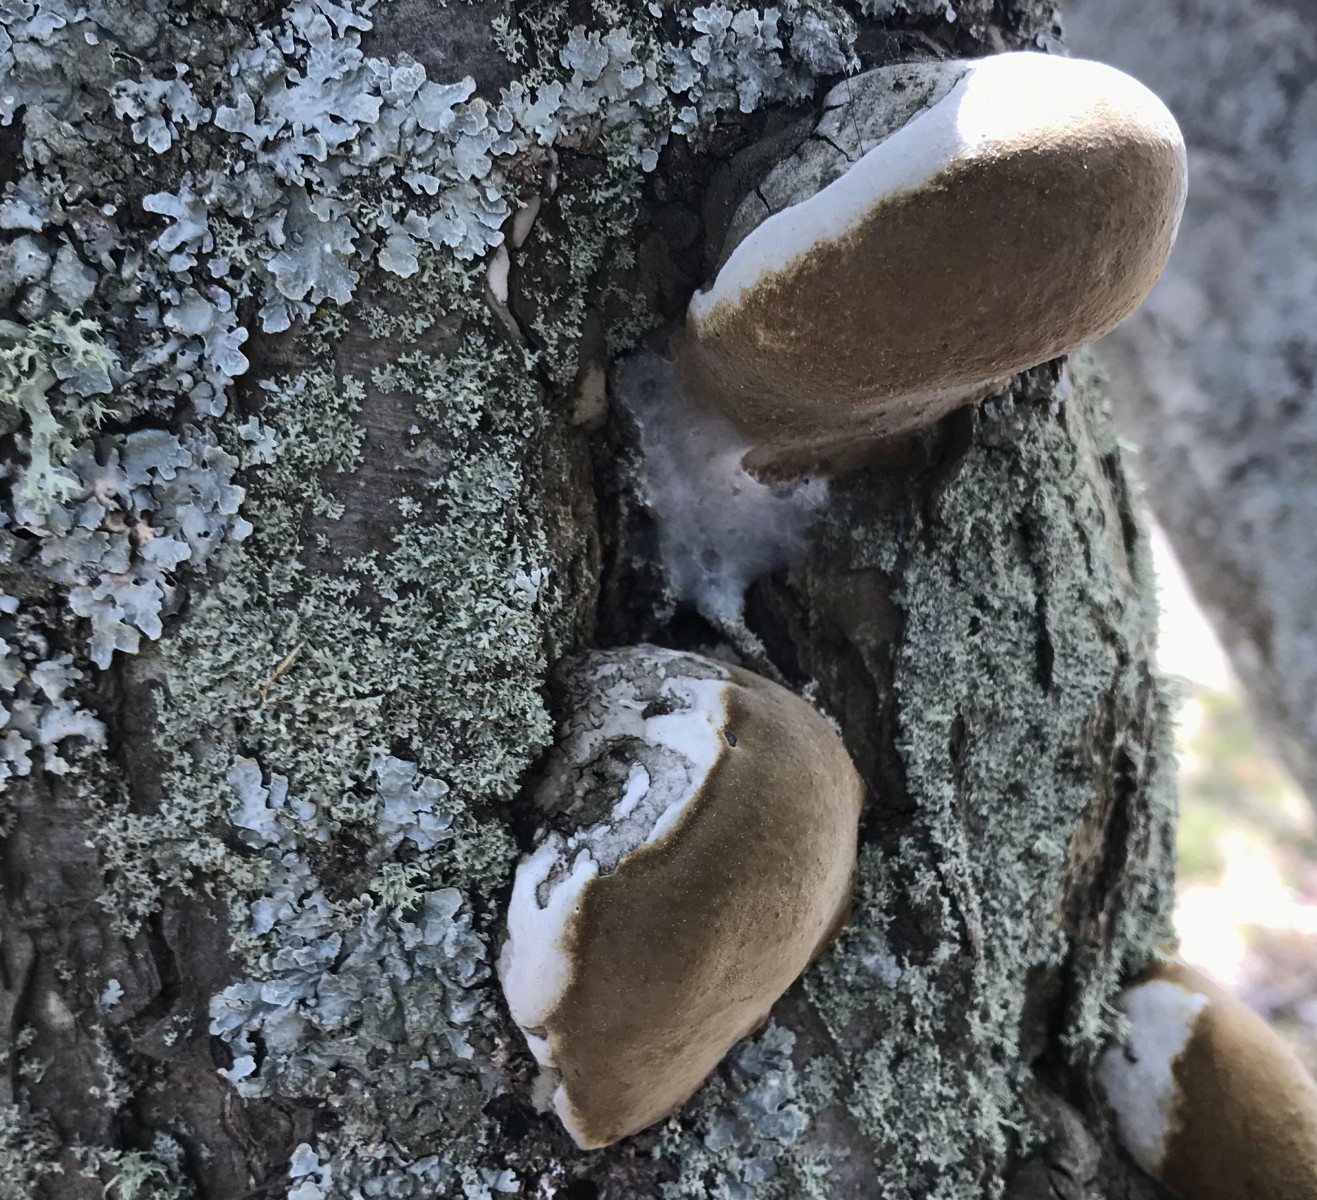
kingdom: Fungi
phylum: Basidiomycota
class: Agaricomycetes
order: Polyporales
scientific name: Polyporales
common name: poresvampordenen
